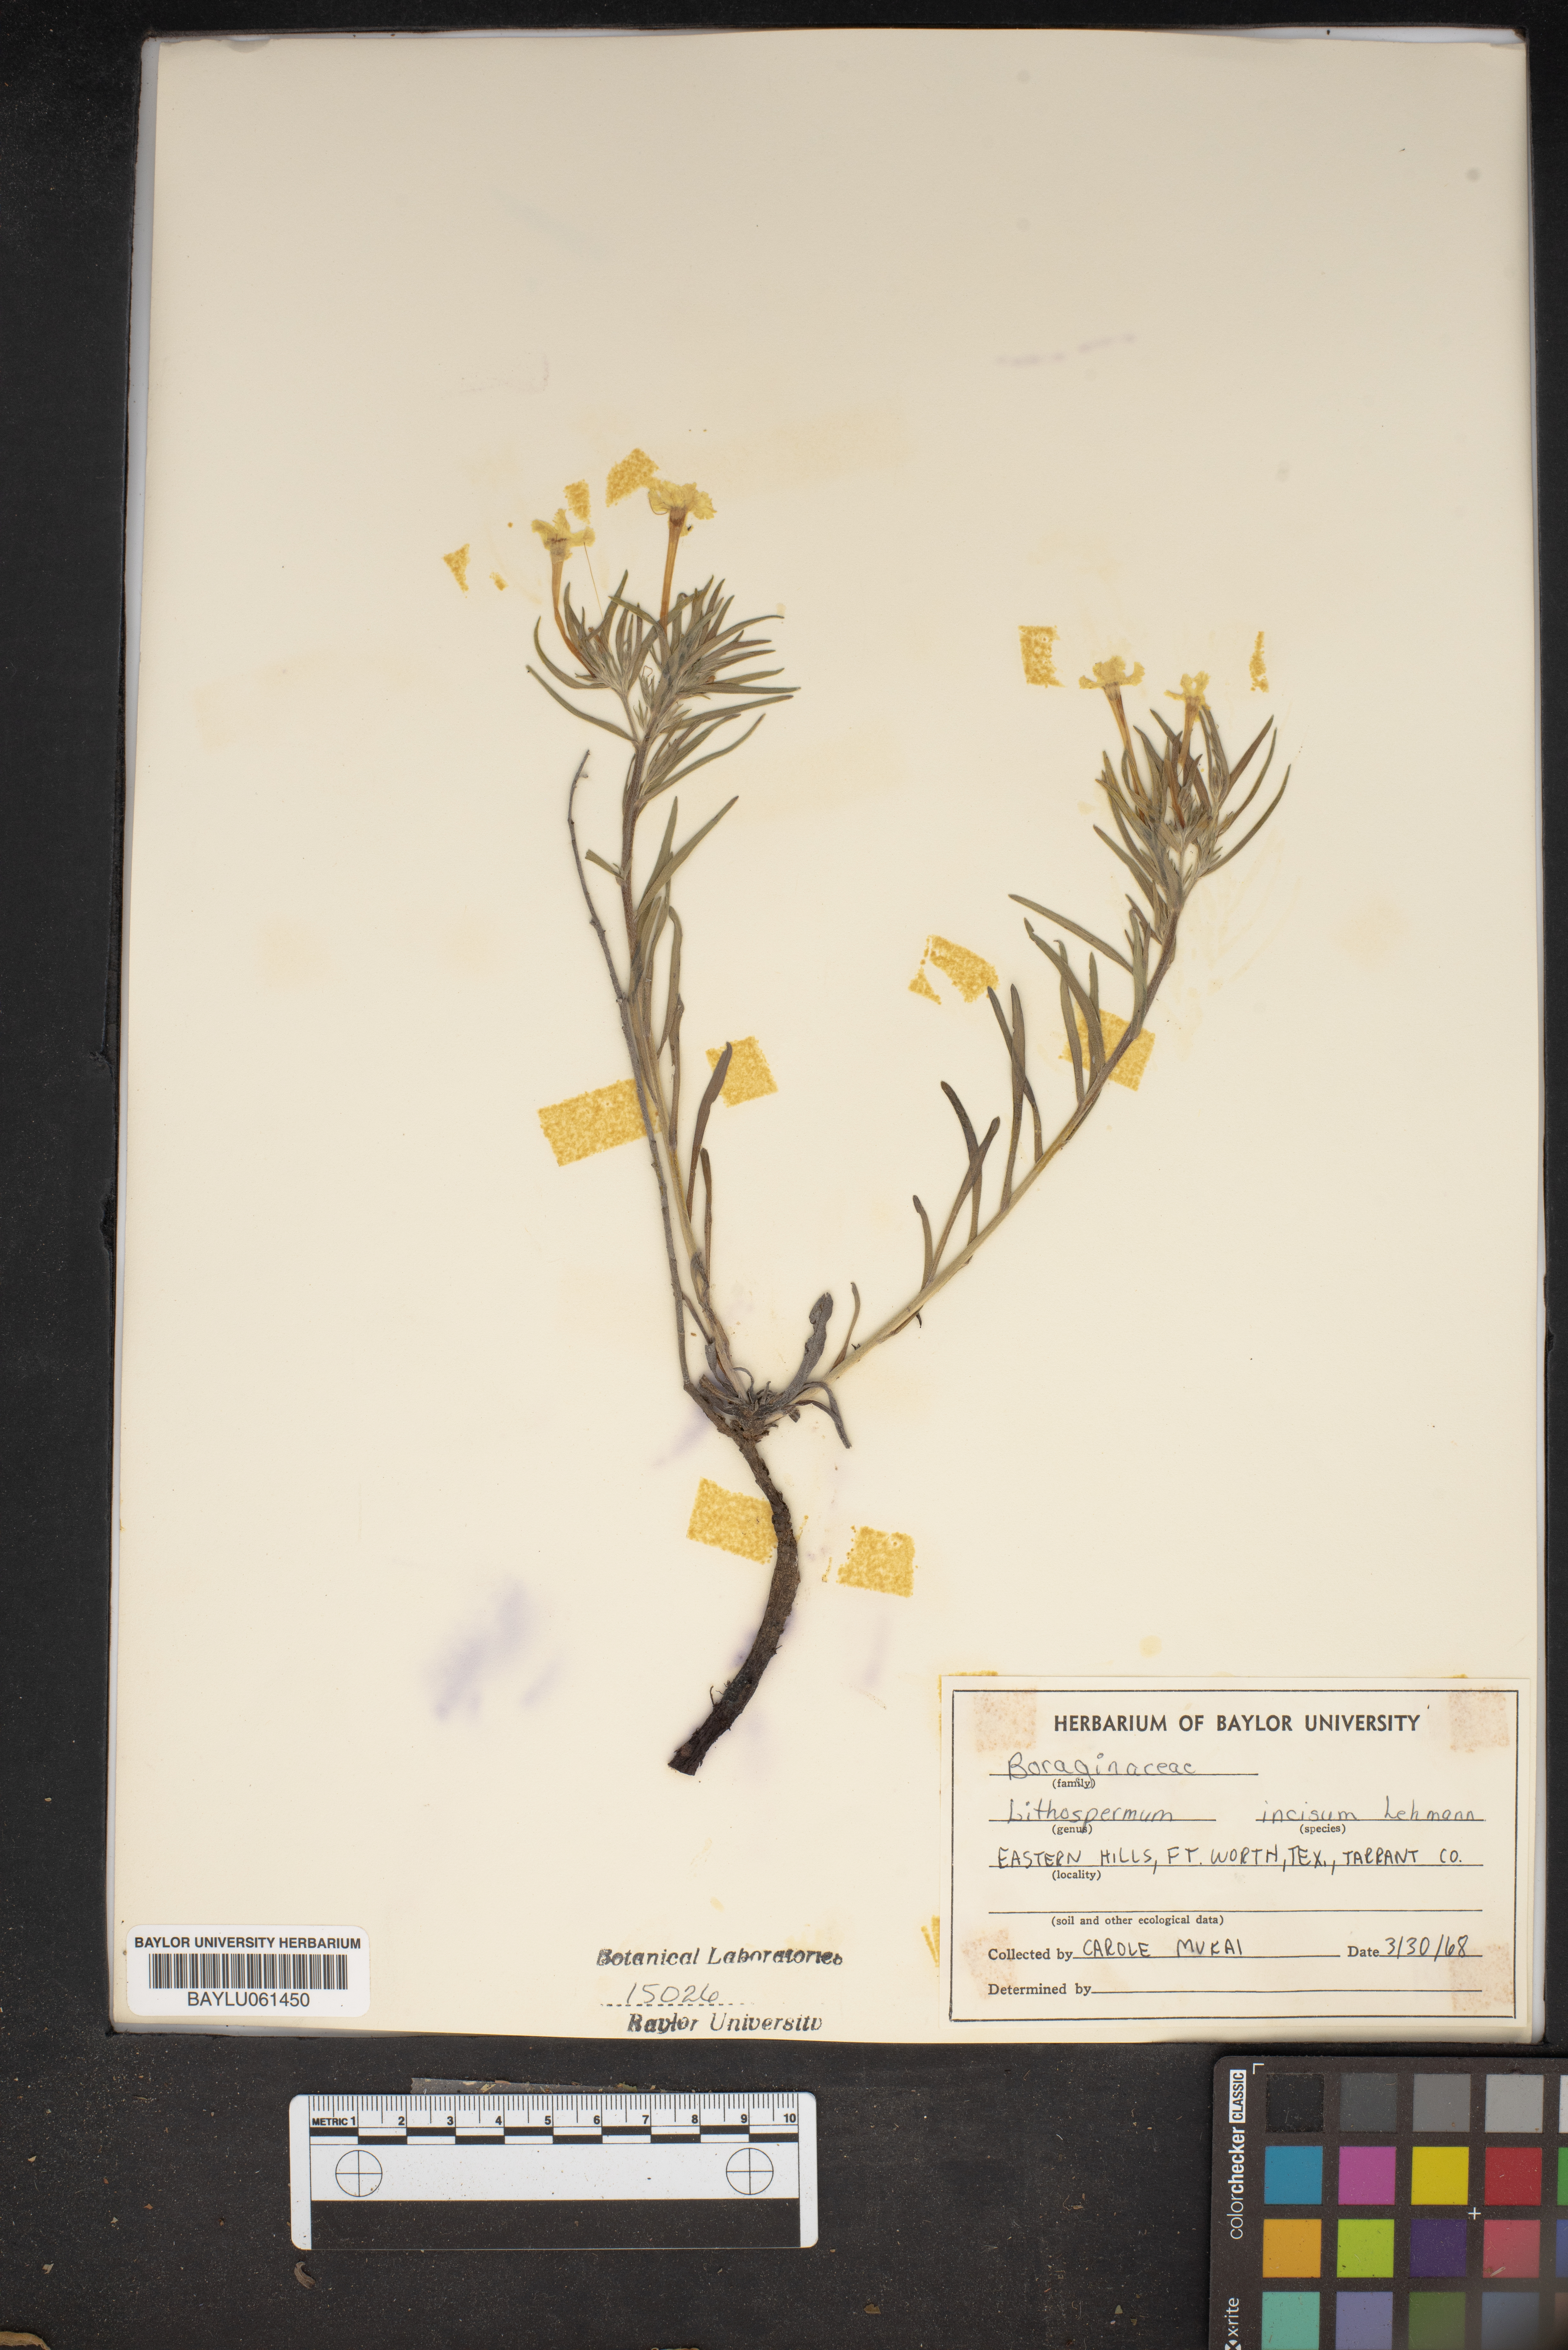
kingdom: Plantae
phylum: Tracheophyta
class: Magnoliopsida
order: Boraginales
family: Boraginaceae
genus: Lithospermum
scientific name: Lithospermum incisum
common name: Fringed gromwell
